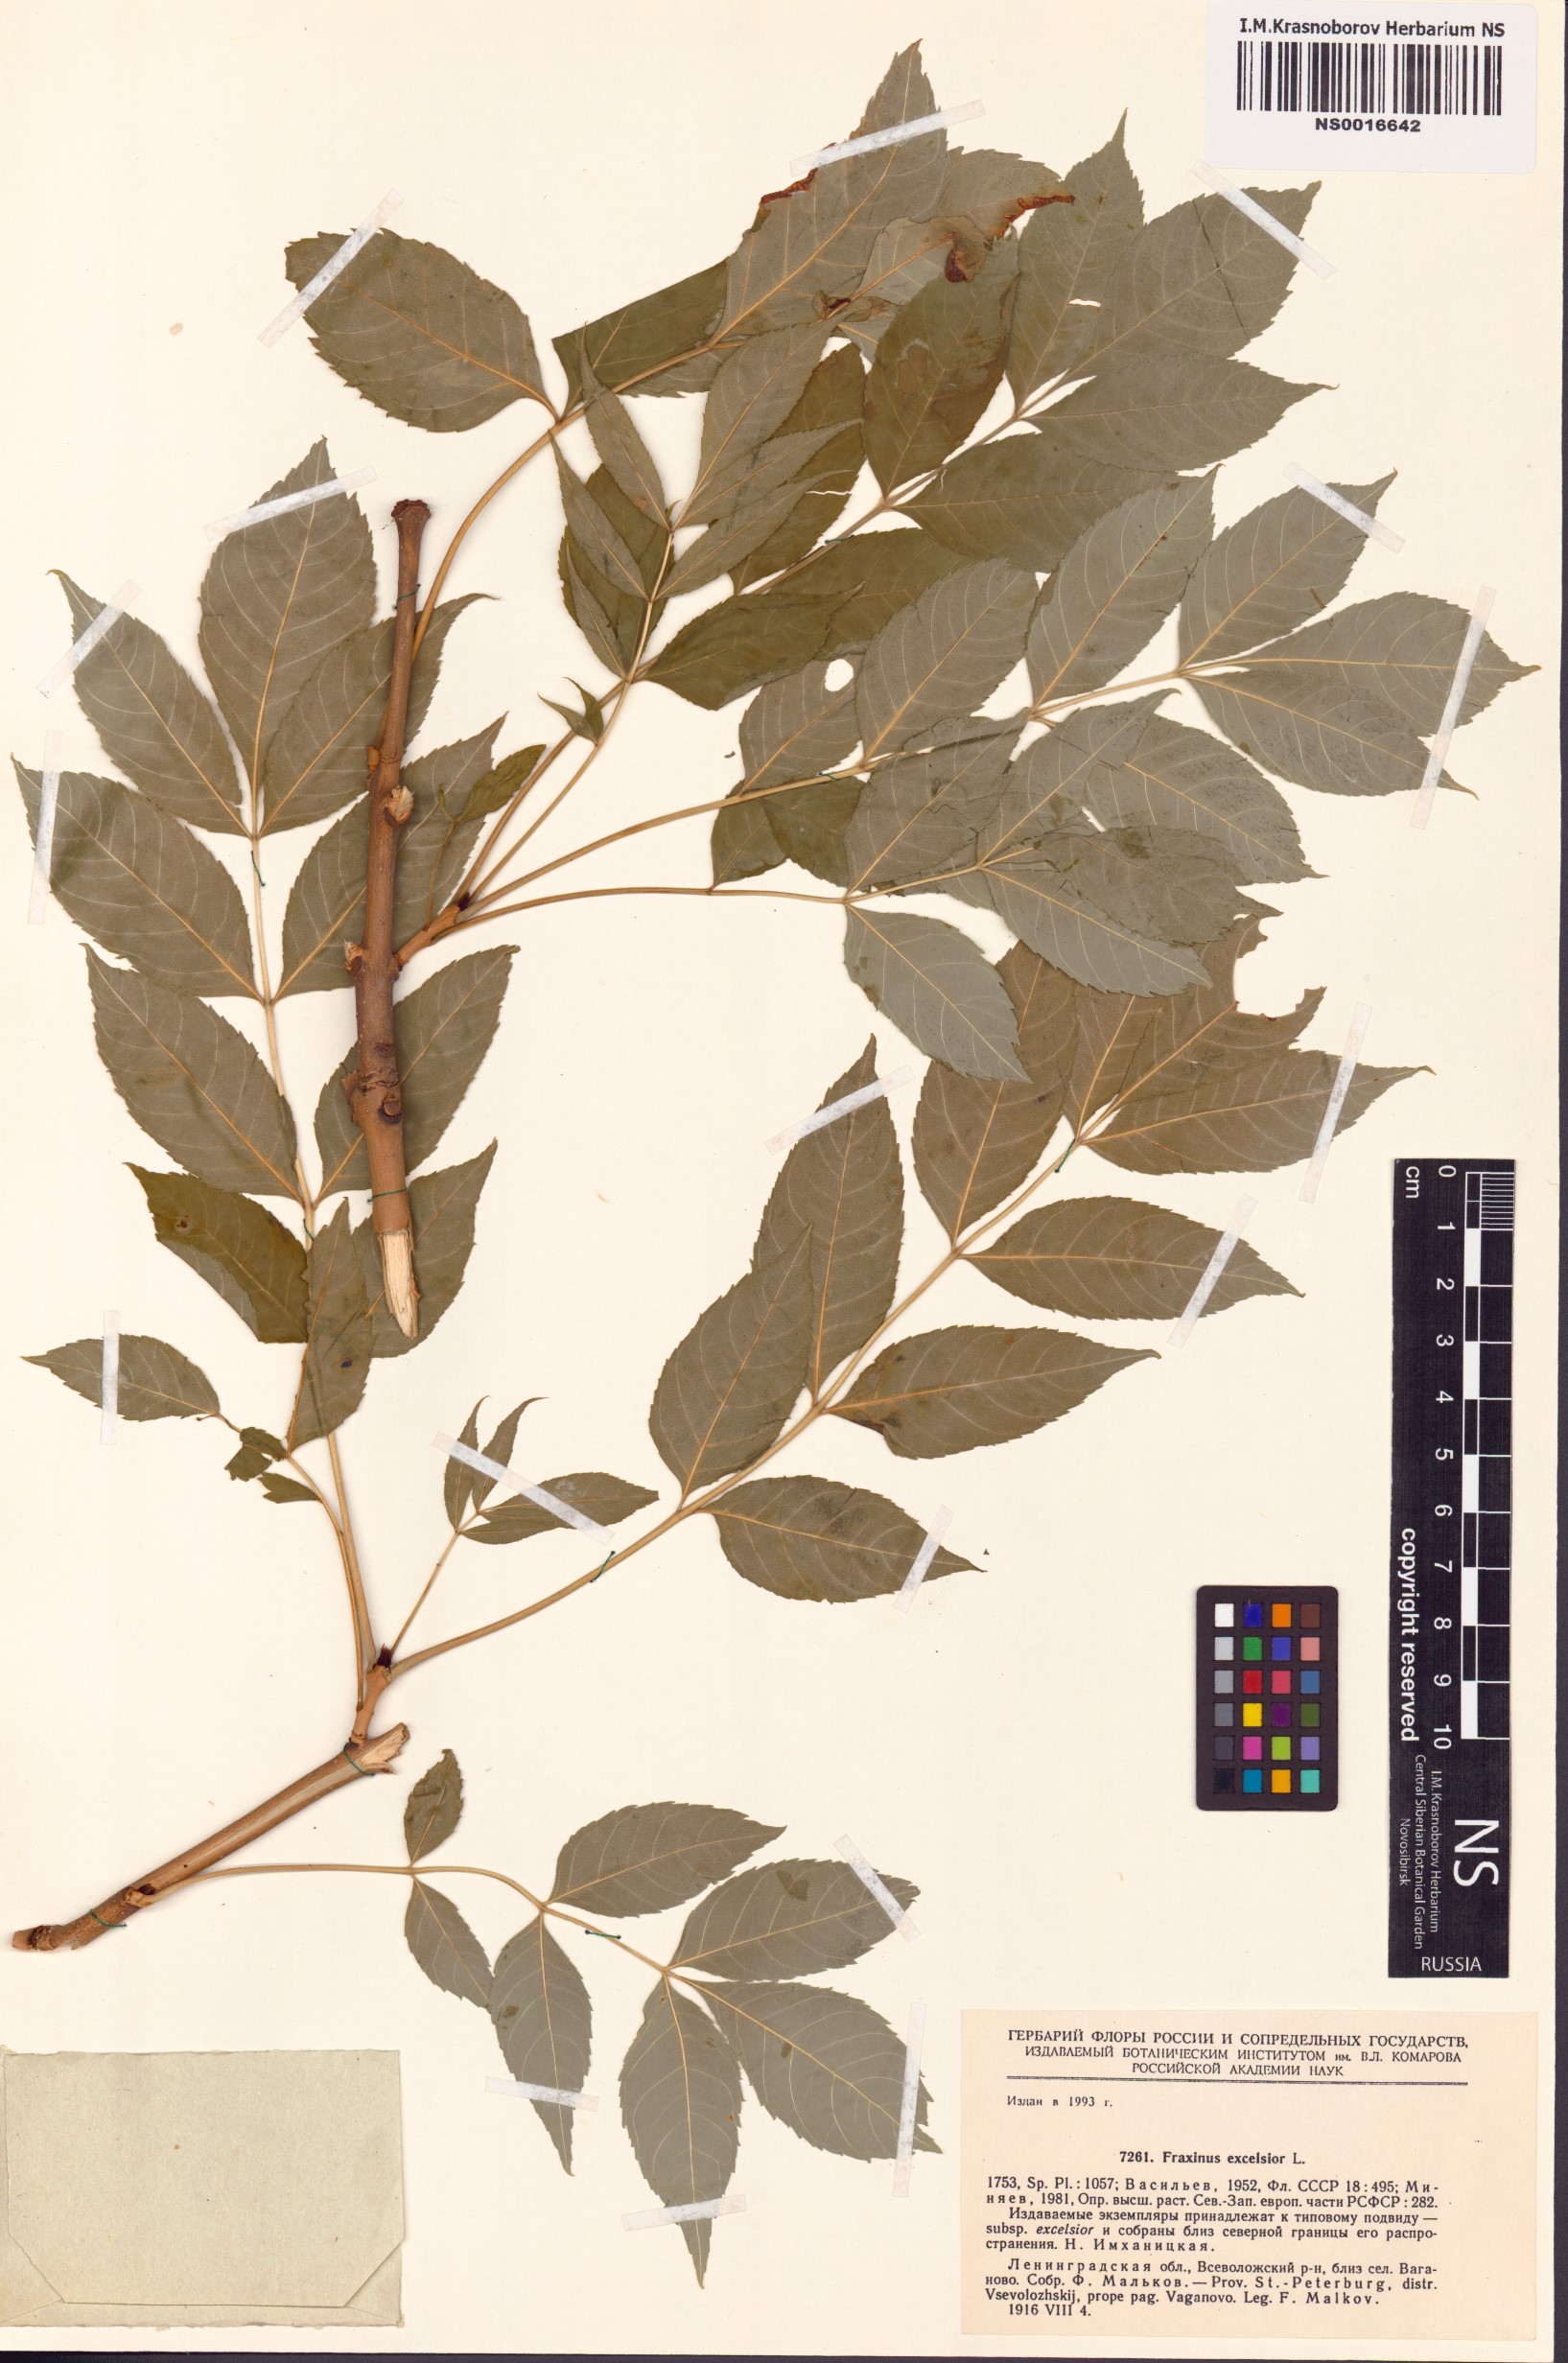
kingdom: Plantae
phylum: Tracheophyta
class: Magnoliopsida
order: Lamiales
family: Oleaceae
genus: Fraxinus
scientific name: Fraxinus excelsior
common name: European ash
